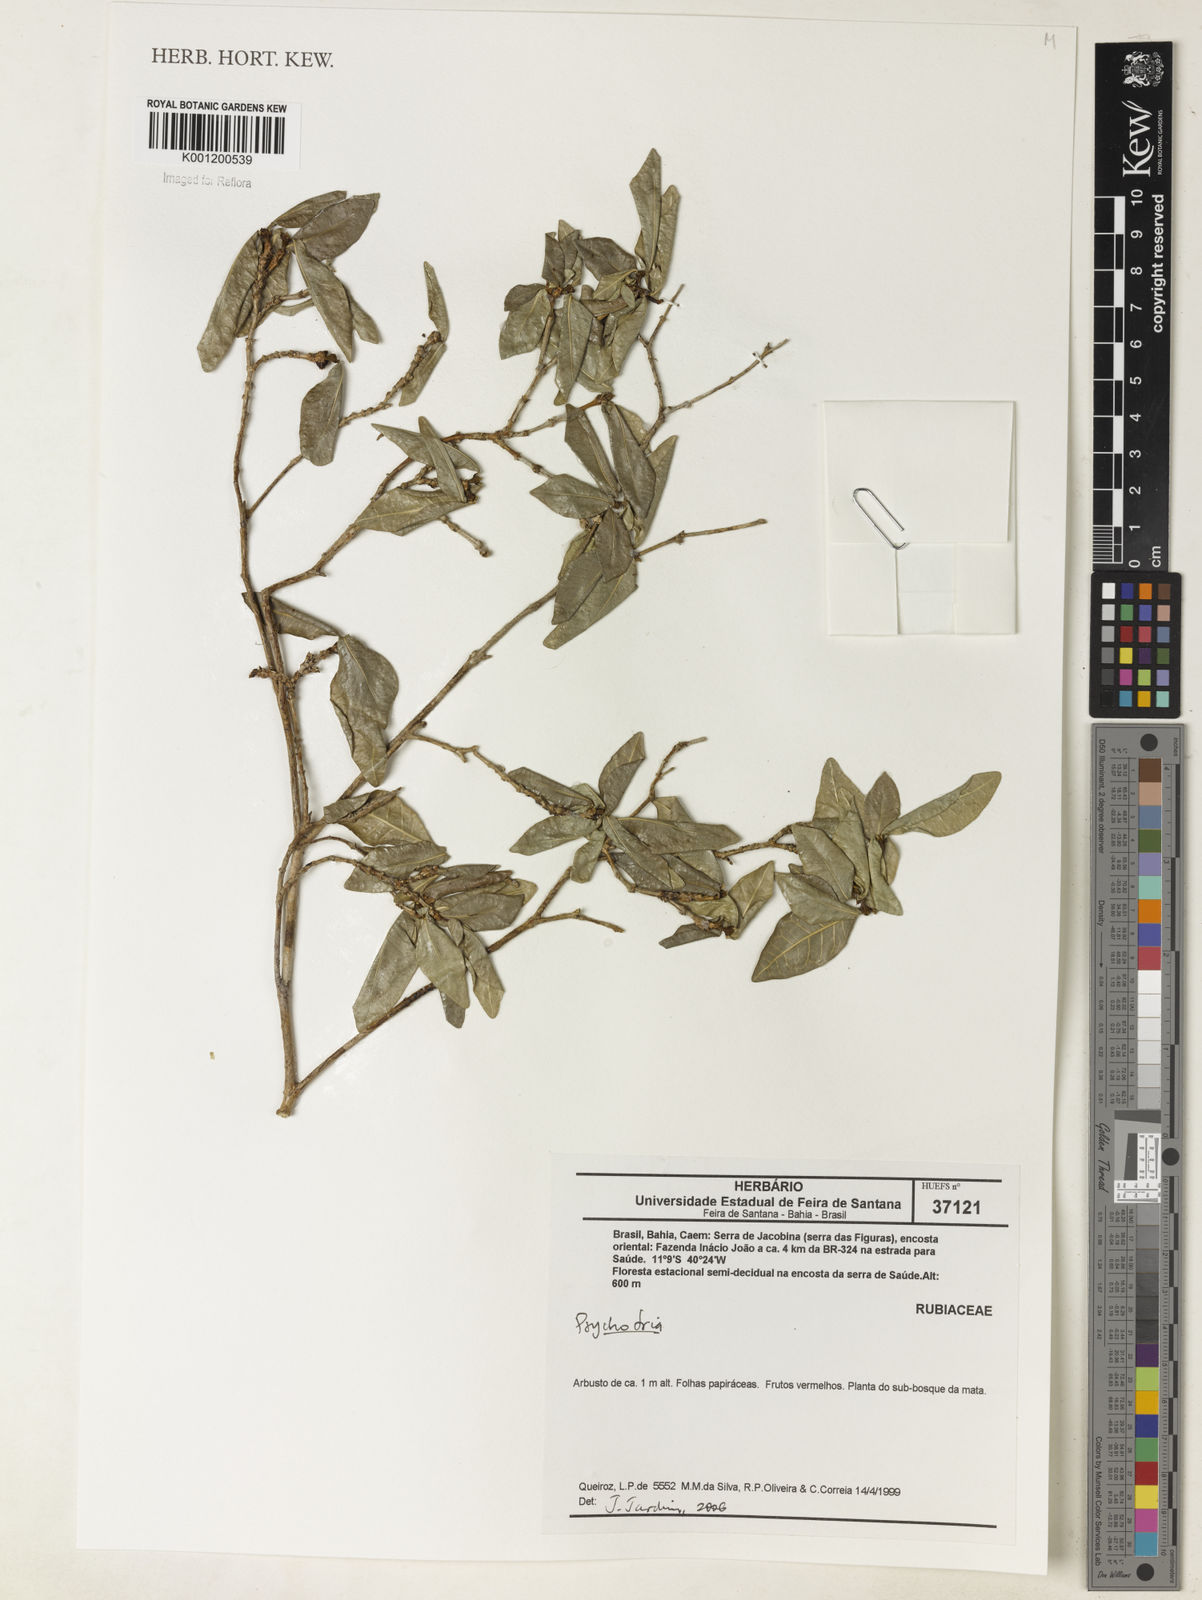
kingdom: Plantae
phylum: Tracheophyta
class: Magnoliopsida
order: Gentianales
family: Rubiaceae
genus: Psychotria
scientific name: Psychotria
